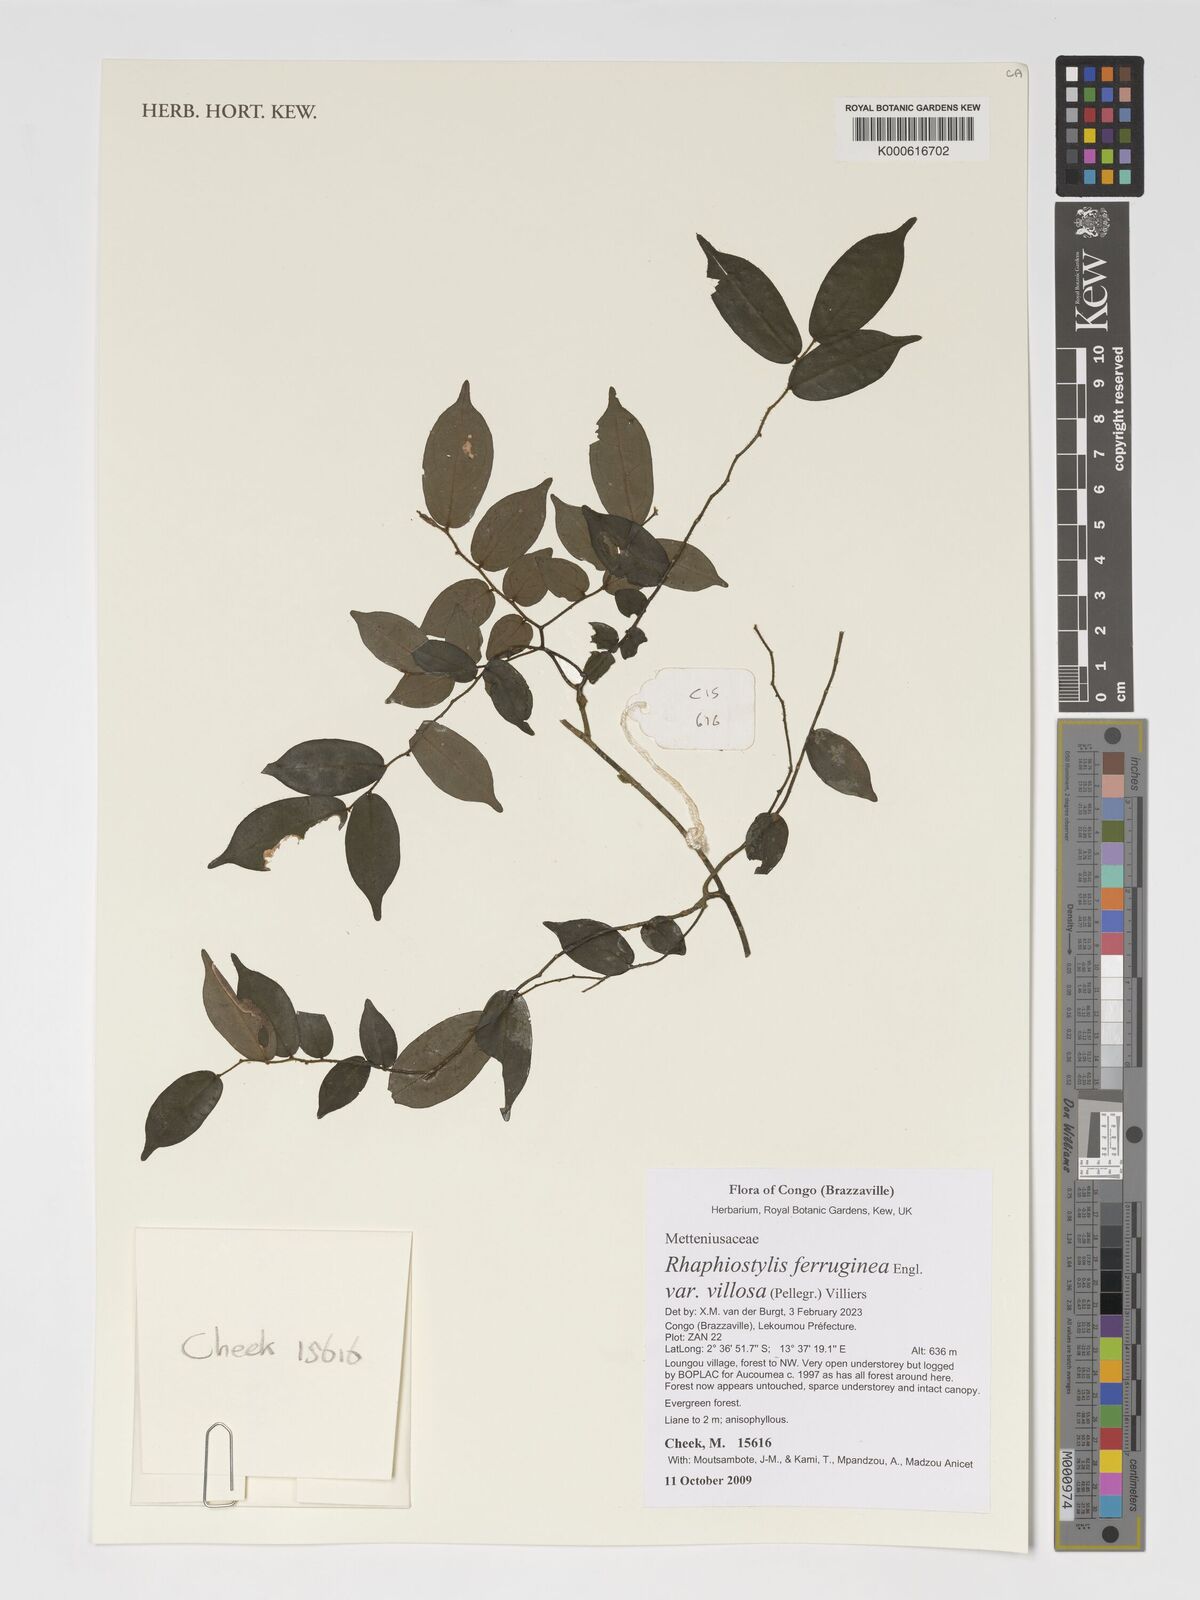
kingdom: Plantae
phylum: Tracheophyta
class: Magnoliopsida
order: Metteniusales
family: Metteniusaceae
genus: Rhaphiostylis
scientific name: Rhaphiostylis ferruginea
